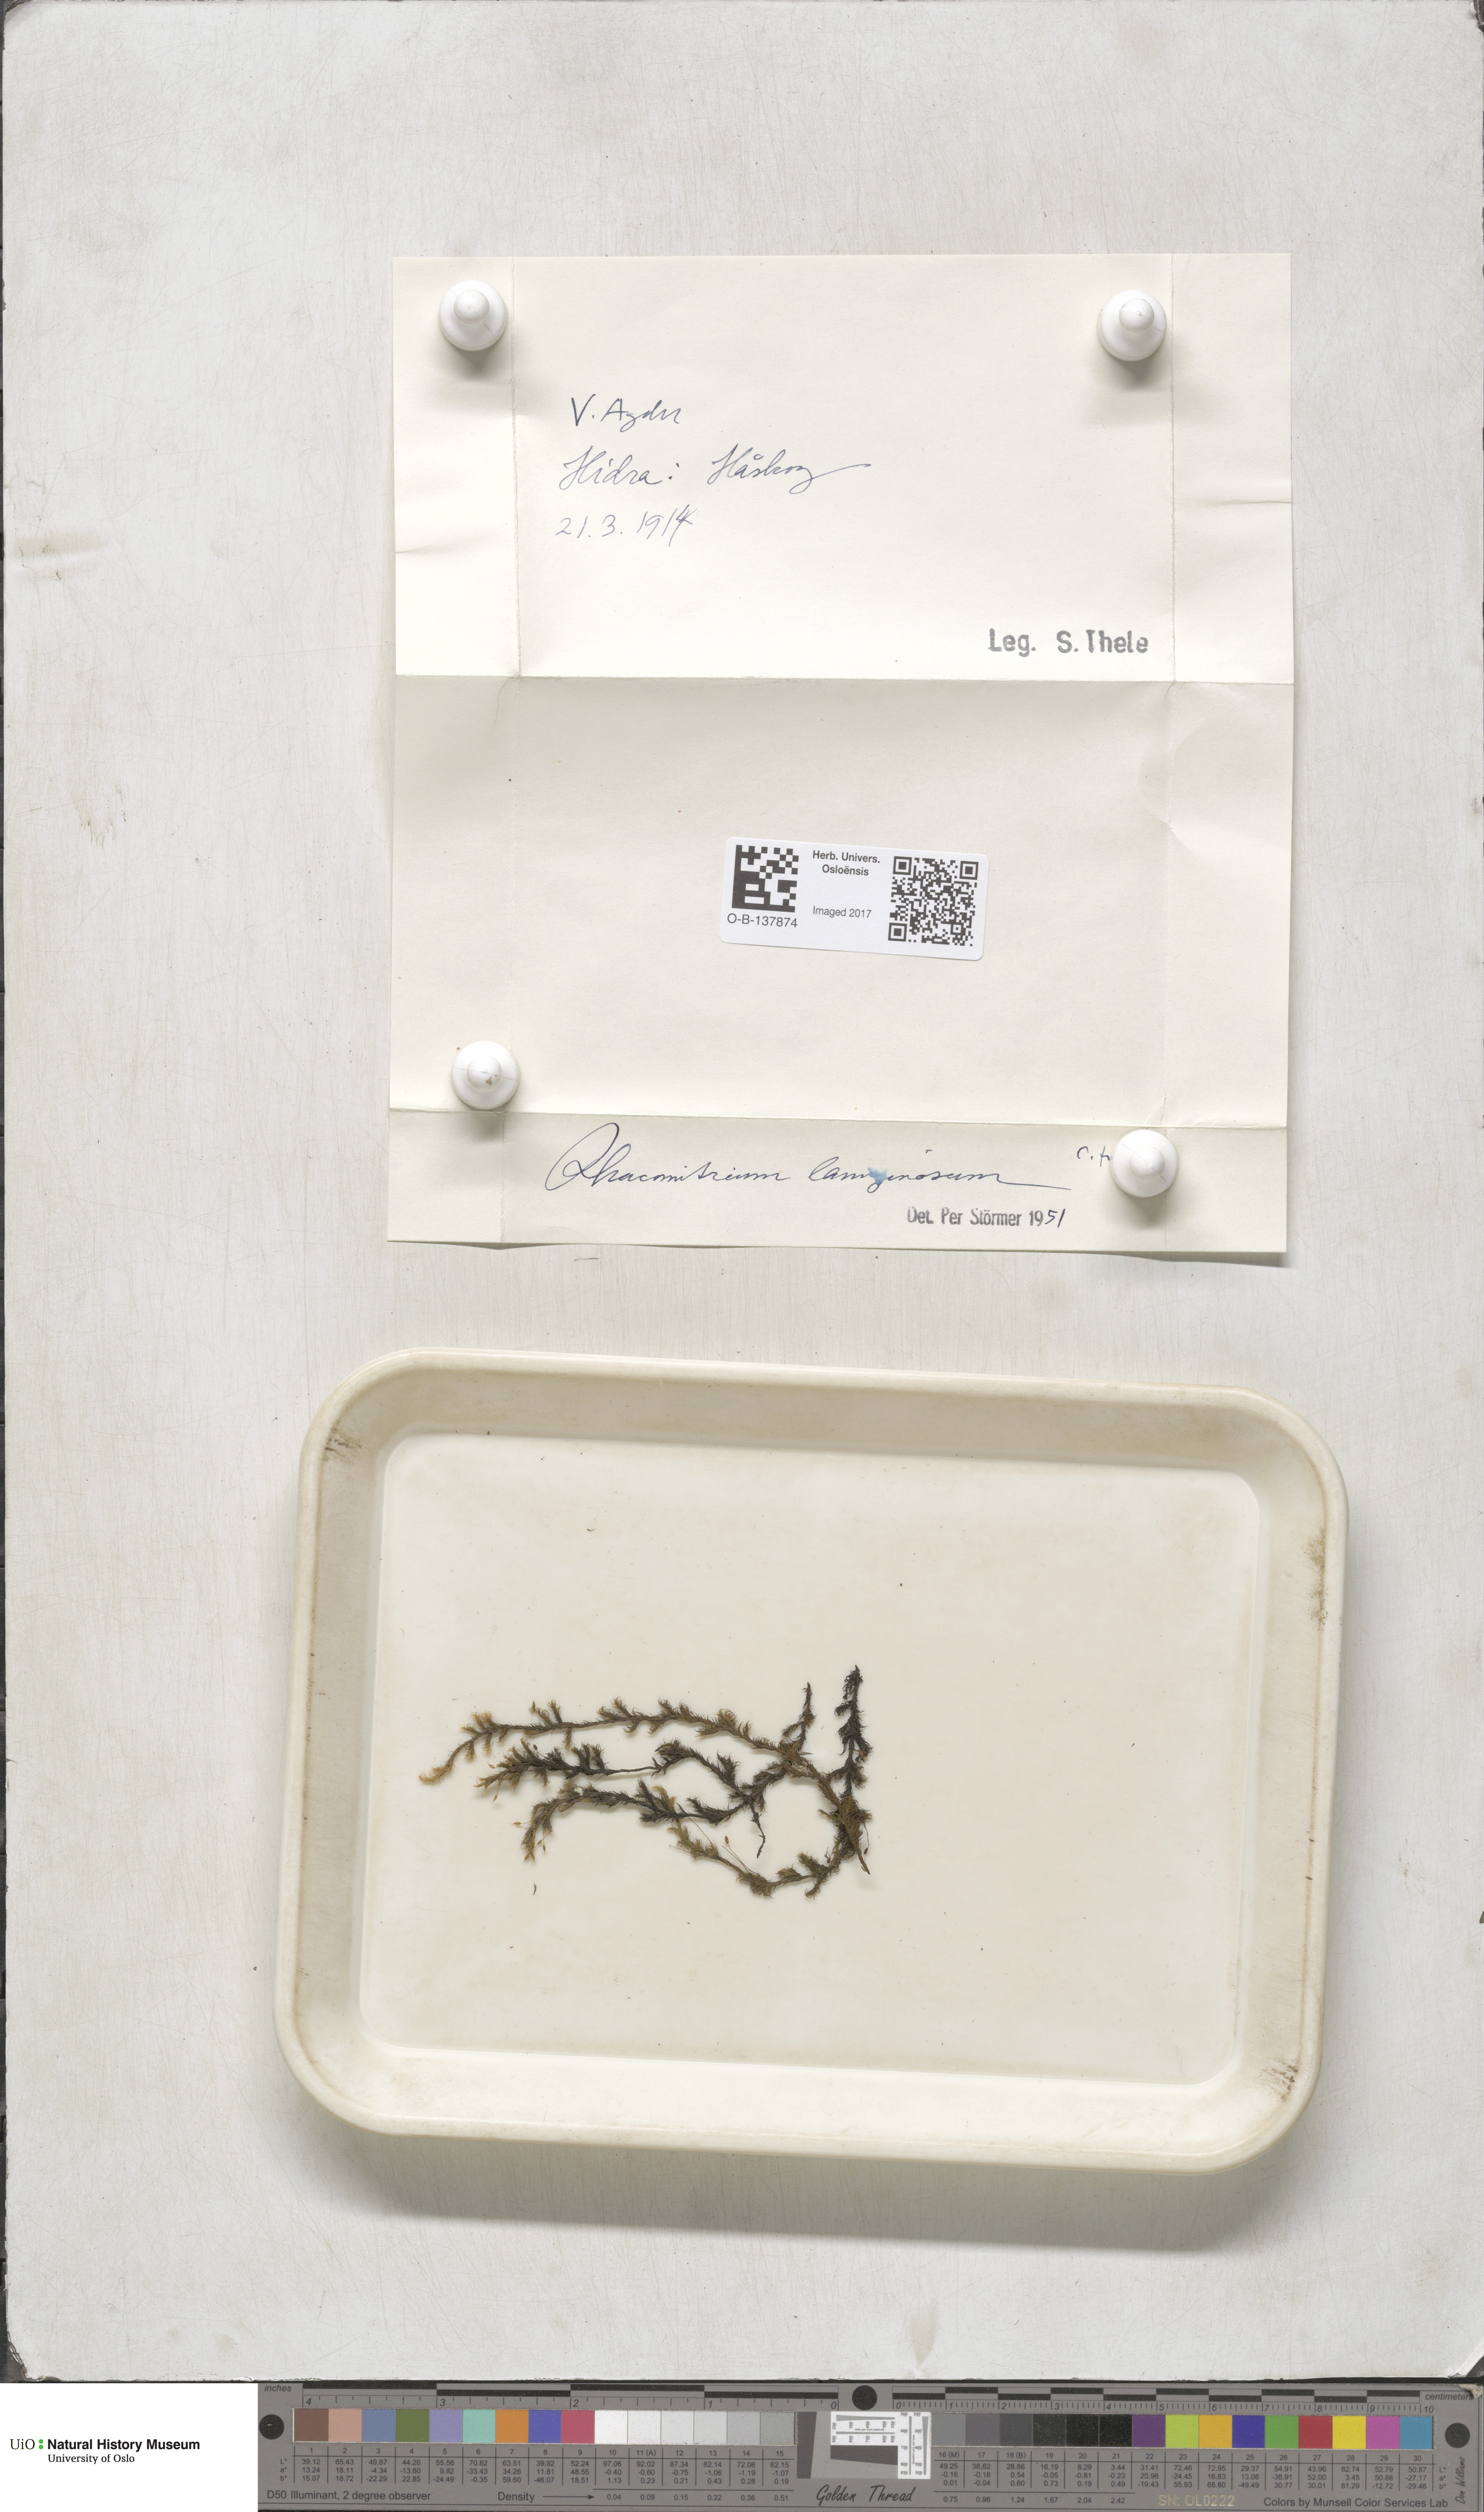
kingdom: Plantae
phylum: Bryophyta
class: Bryopsida
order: Grimmiales
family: Grimmiaceae
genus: Racomitrium
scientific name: Racomitrium lanuginosum
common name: Hoary rock moss
